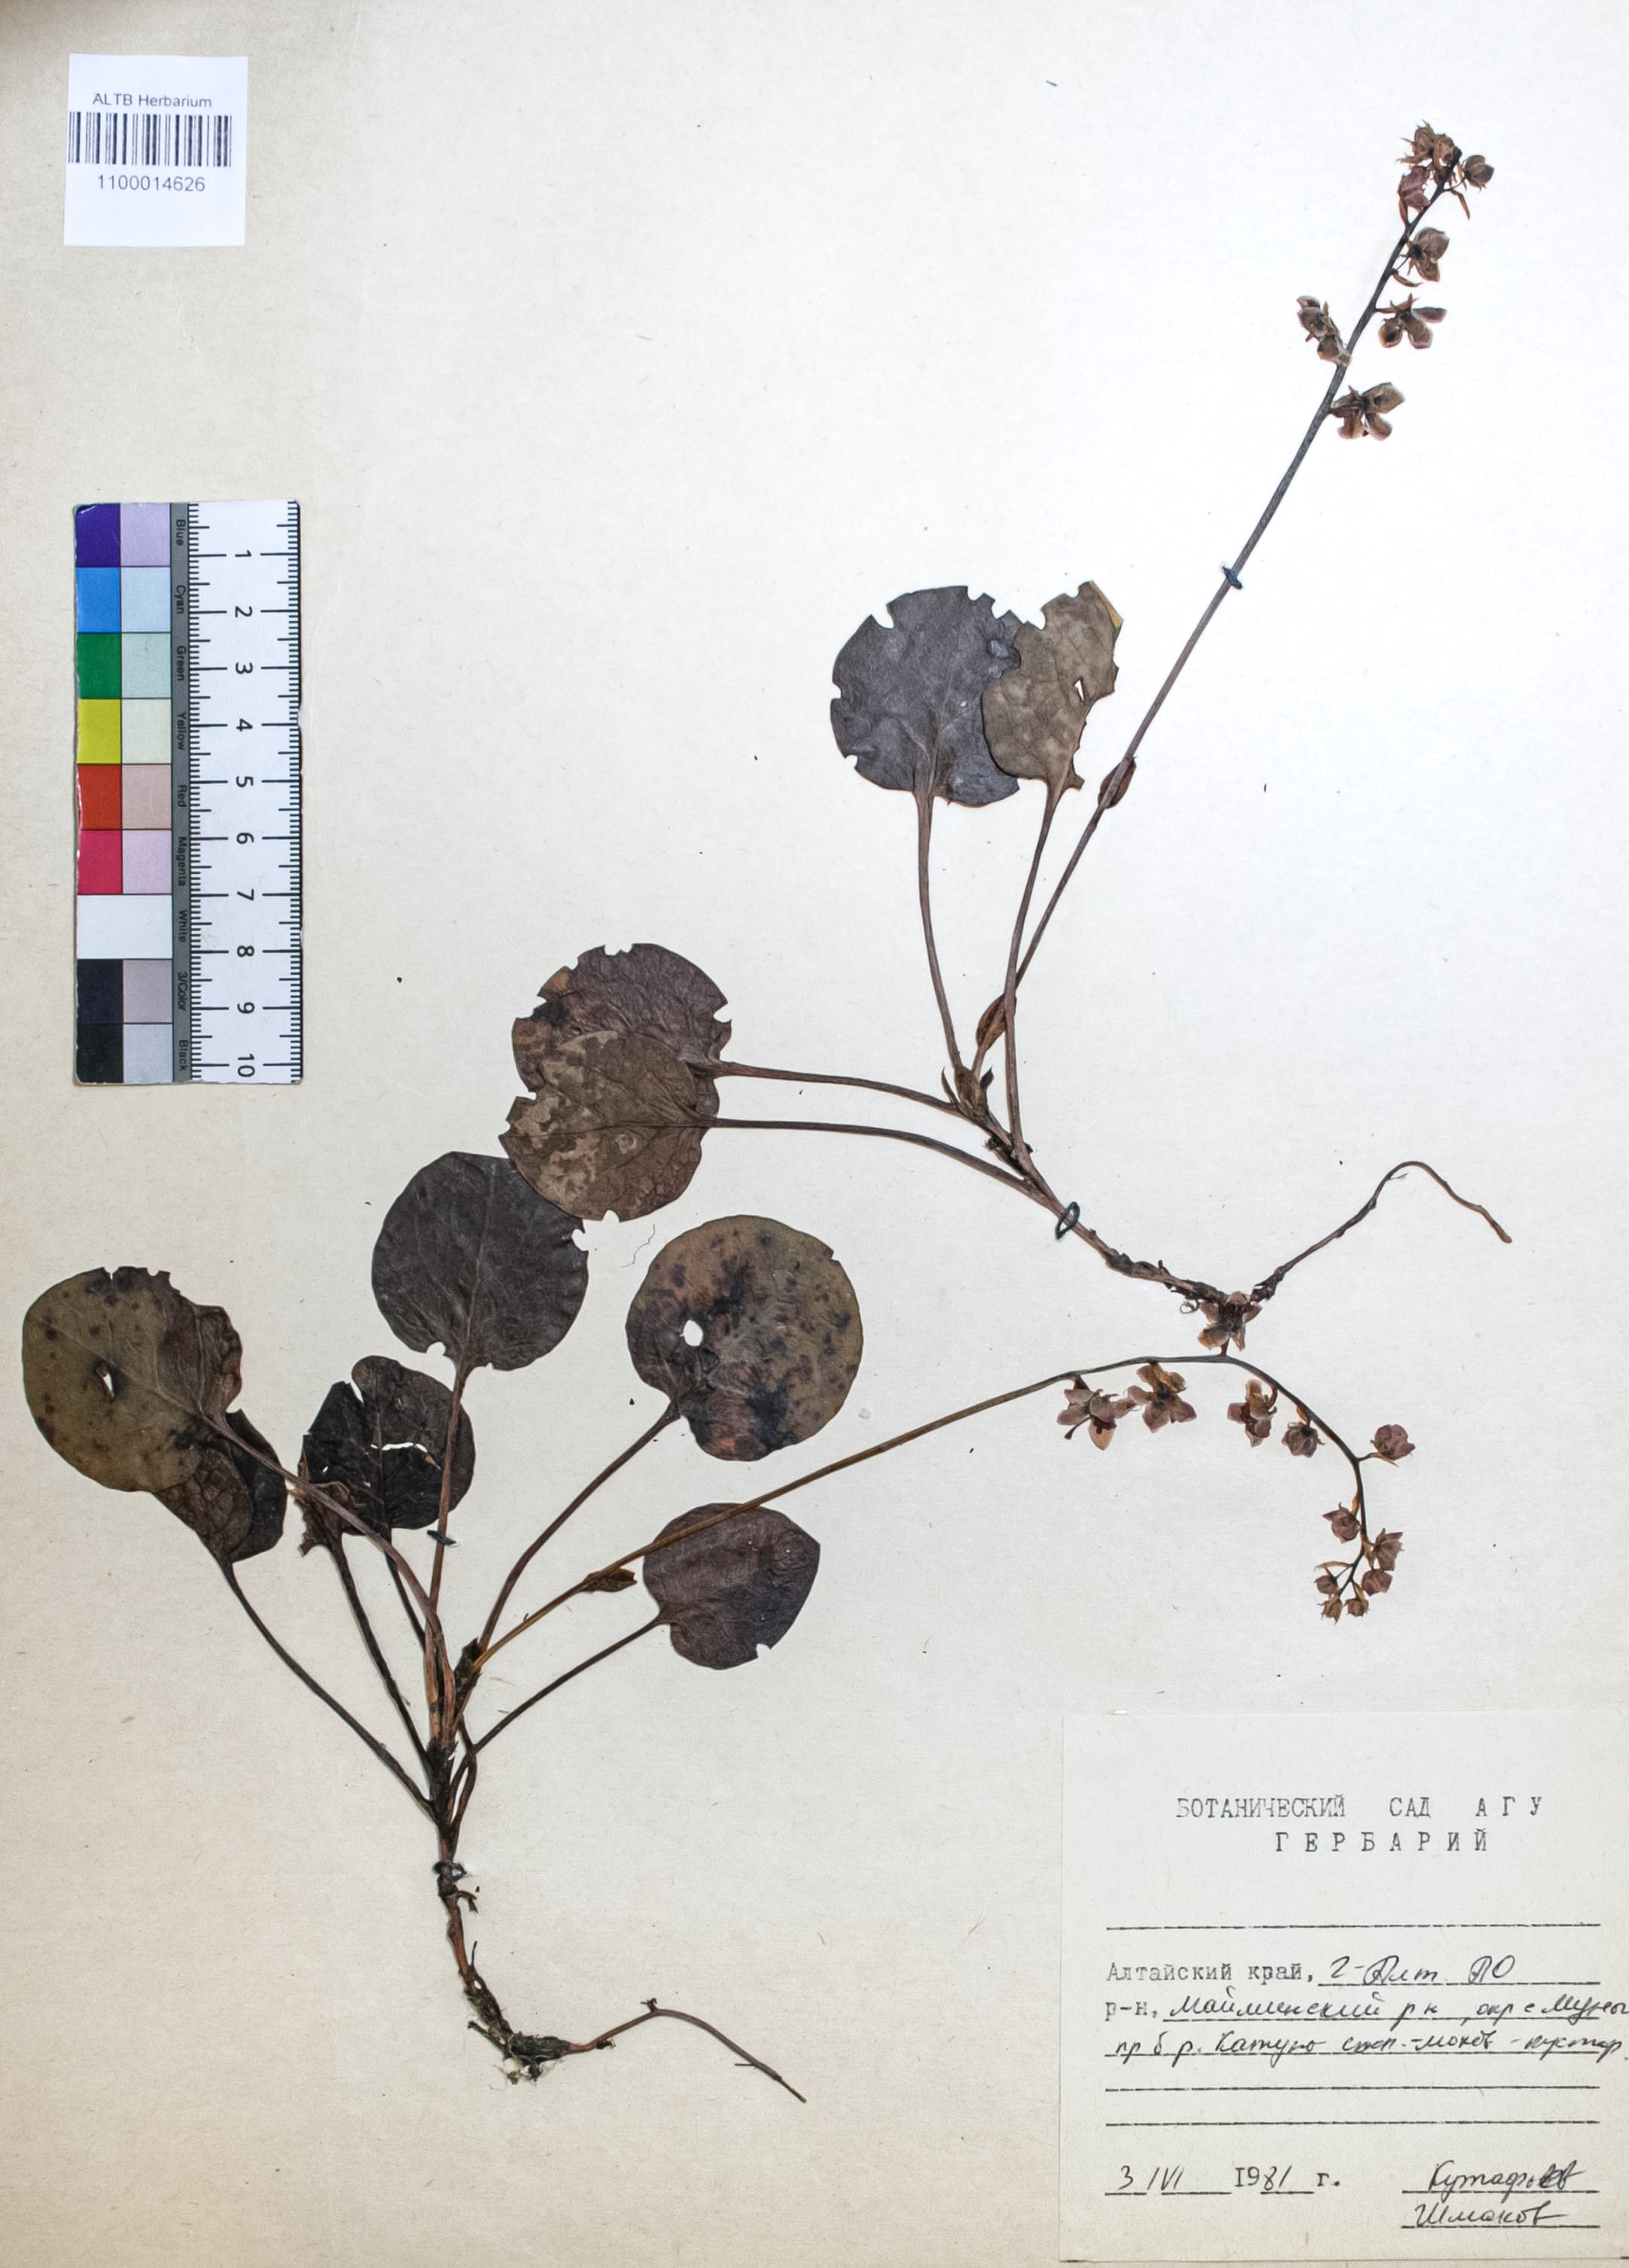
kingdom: Plantae
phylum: Tracheophyta
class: Magnoliopsida
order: Ericales
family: Ericaceae
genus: Pyrola
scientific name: Pyrola rotundifolia
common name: Round-leaved wintergreen
